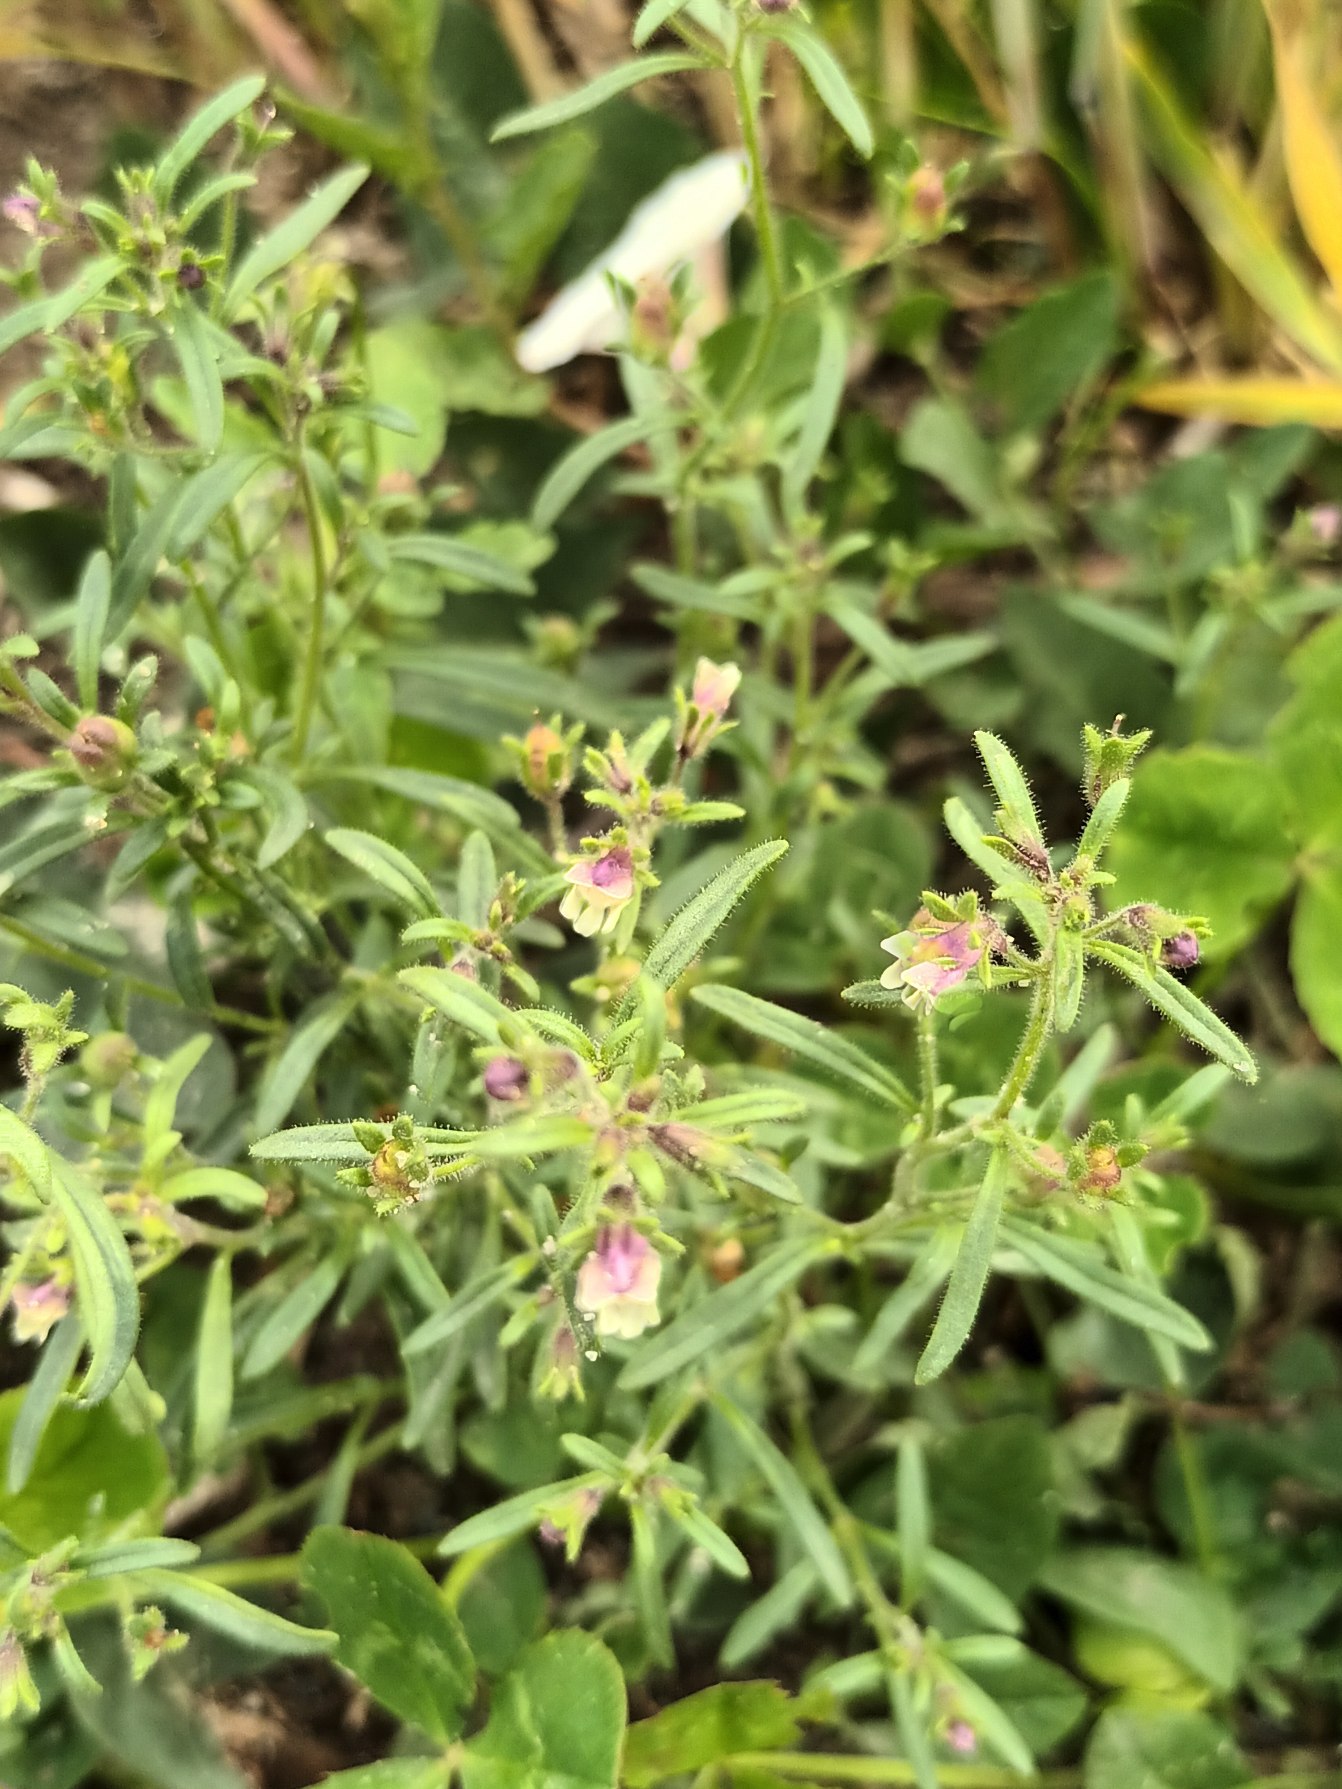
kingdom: Plantae
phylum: Tracheophyta
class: Magnoliopsida
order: Lamiales
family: Plantaginaceae
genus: Chaenorhinum
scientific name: Chaenorhinum minus
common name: Liden torskemund
